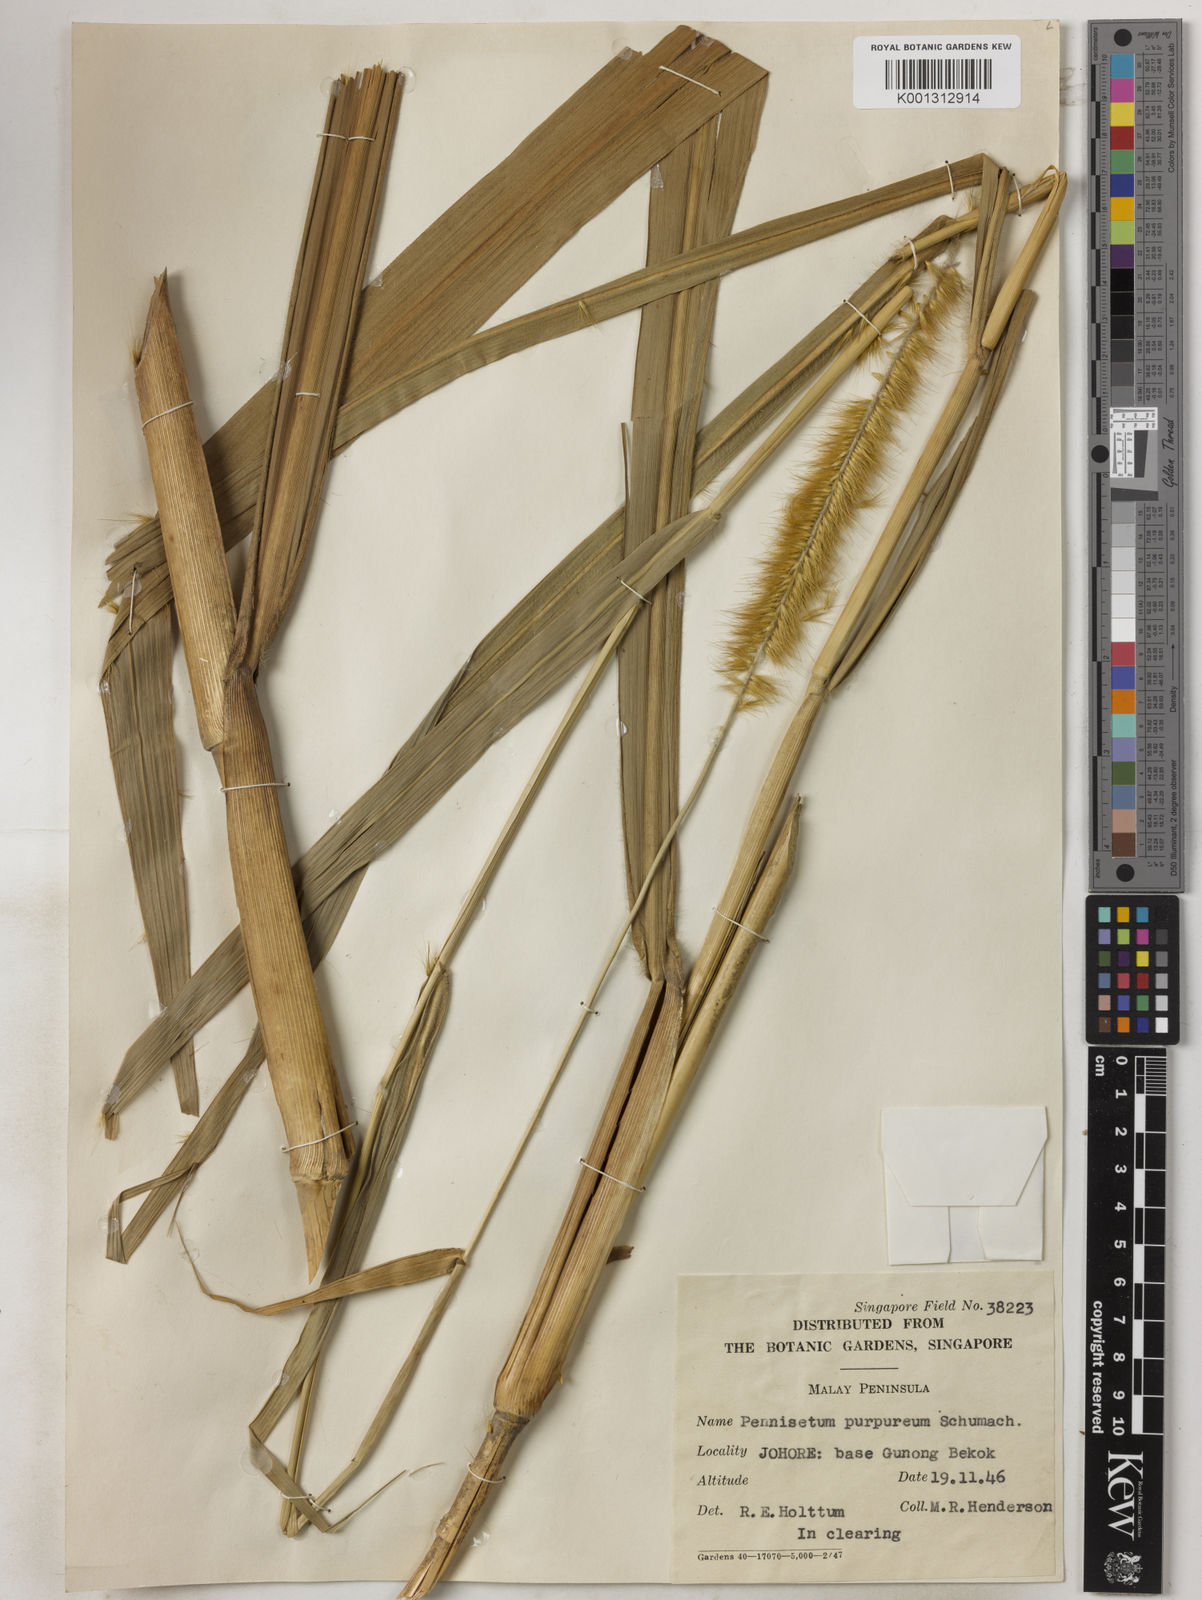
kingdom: Plantae
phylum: Tracheophyta
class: Liliopsida
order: Poales
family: Poaceae
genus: Cenchrus
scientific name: Cenchrus purpureus
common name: Elephant grass
